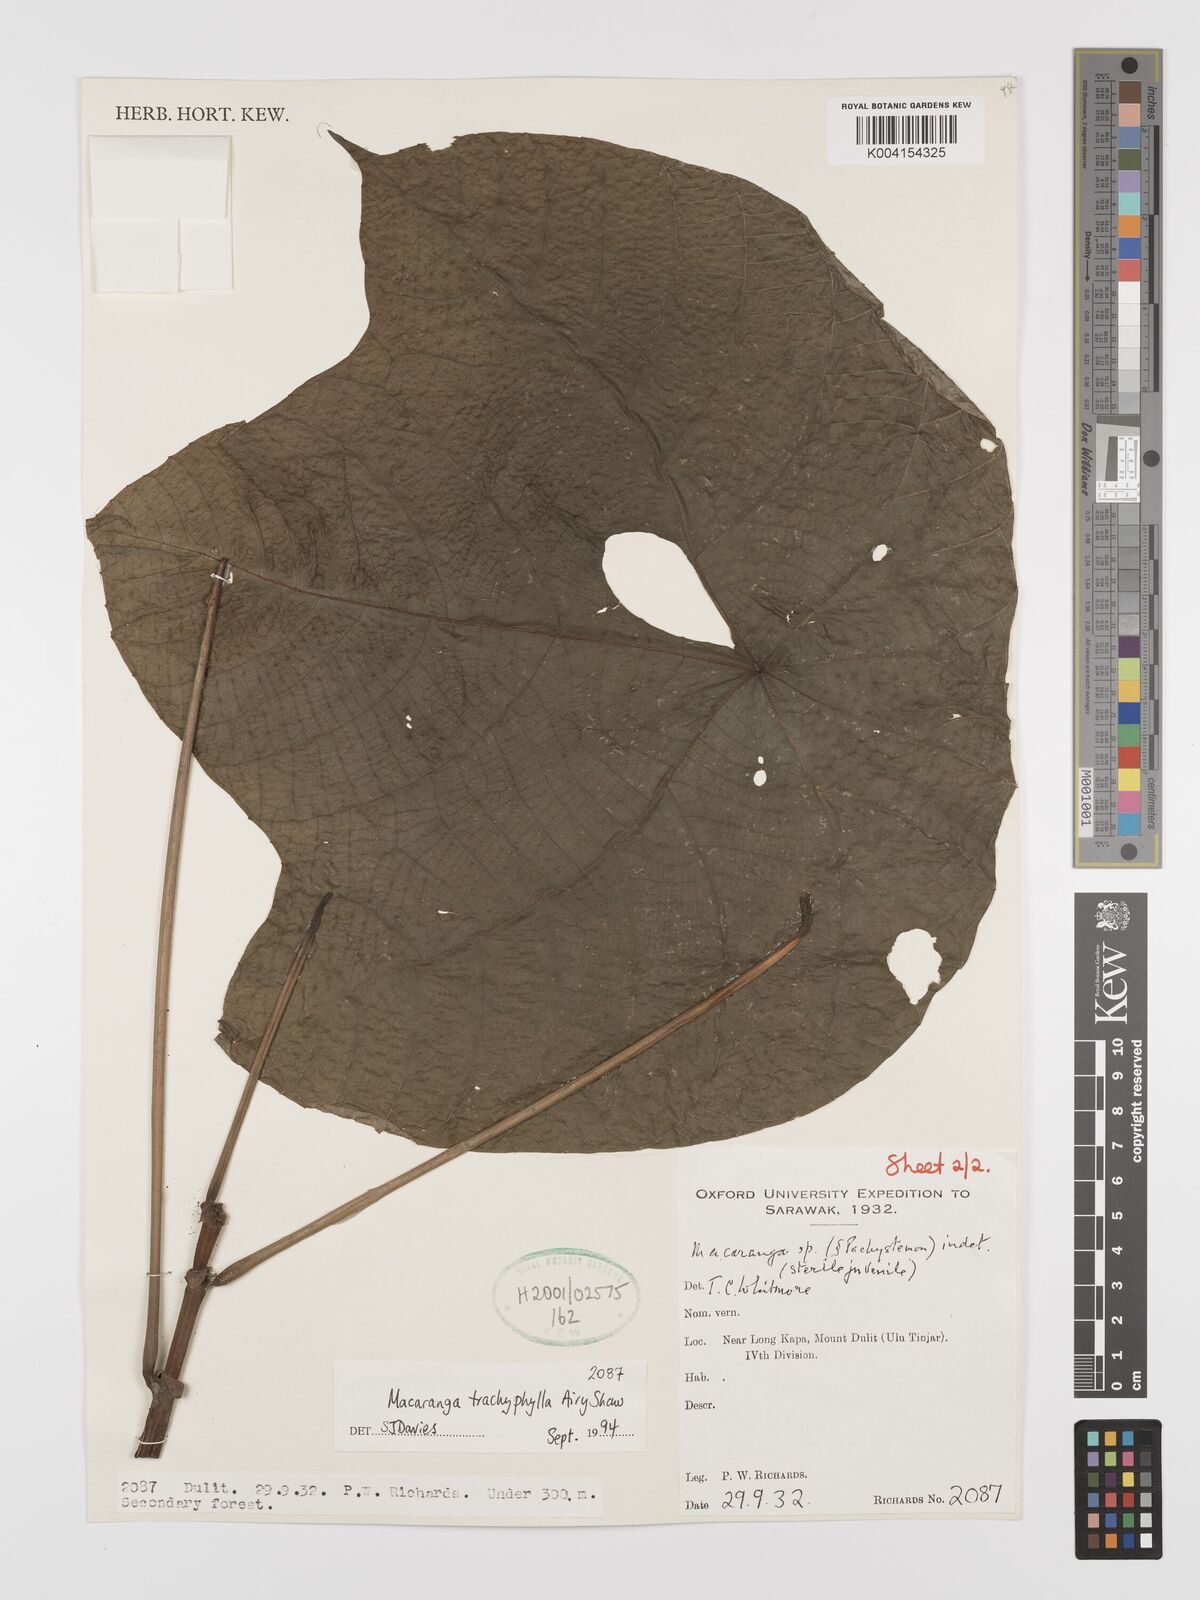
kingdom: Plantae
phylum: Tracheophyta
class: Magnoliopsida
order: Malpighiales
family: Euphorbiaceae
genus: Macaranga
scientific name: Macaranga trachyphylla
